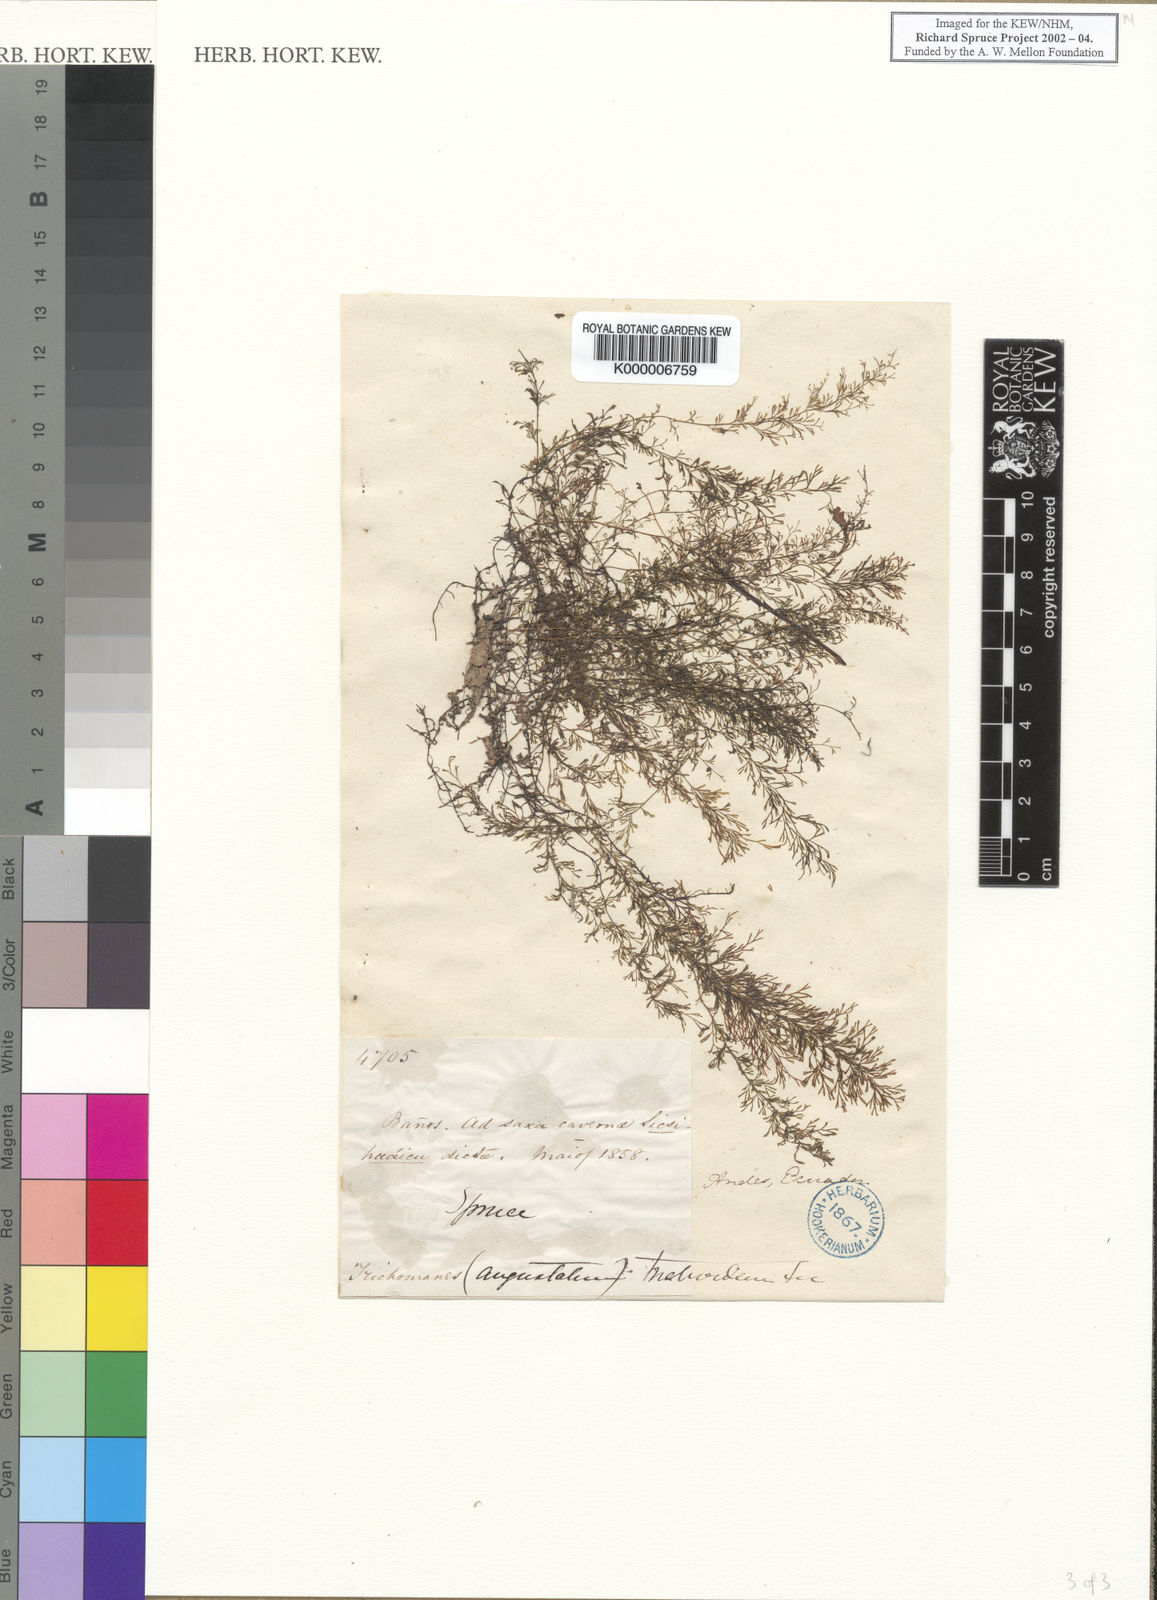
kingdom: Plantae
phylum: Tracheophyta
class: Polypodiopsida
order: Hymenophyllales
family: Hymenophyllaceae
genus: Trichomanes
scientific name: Trichomanes
